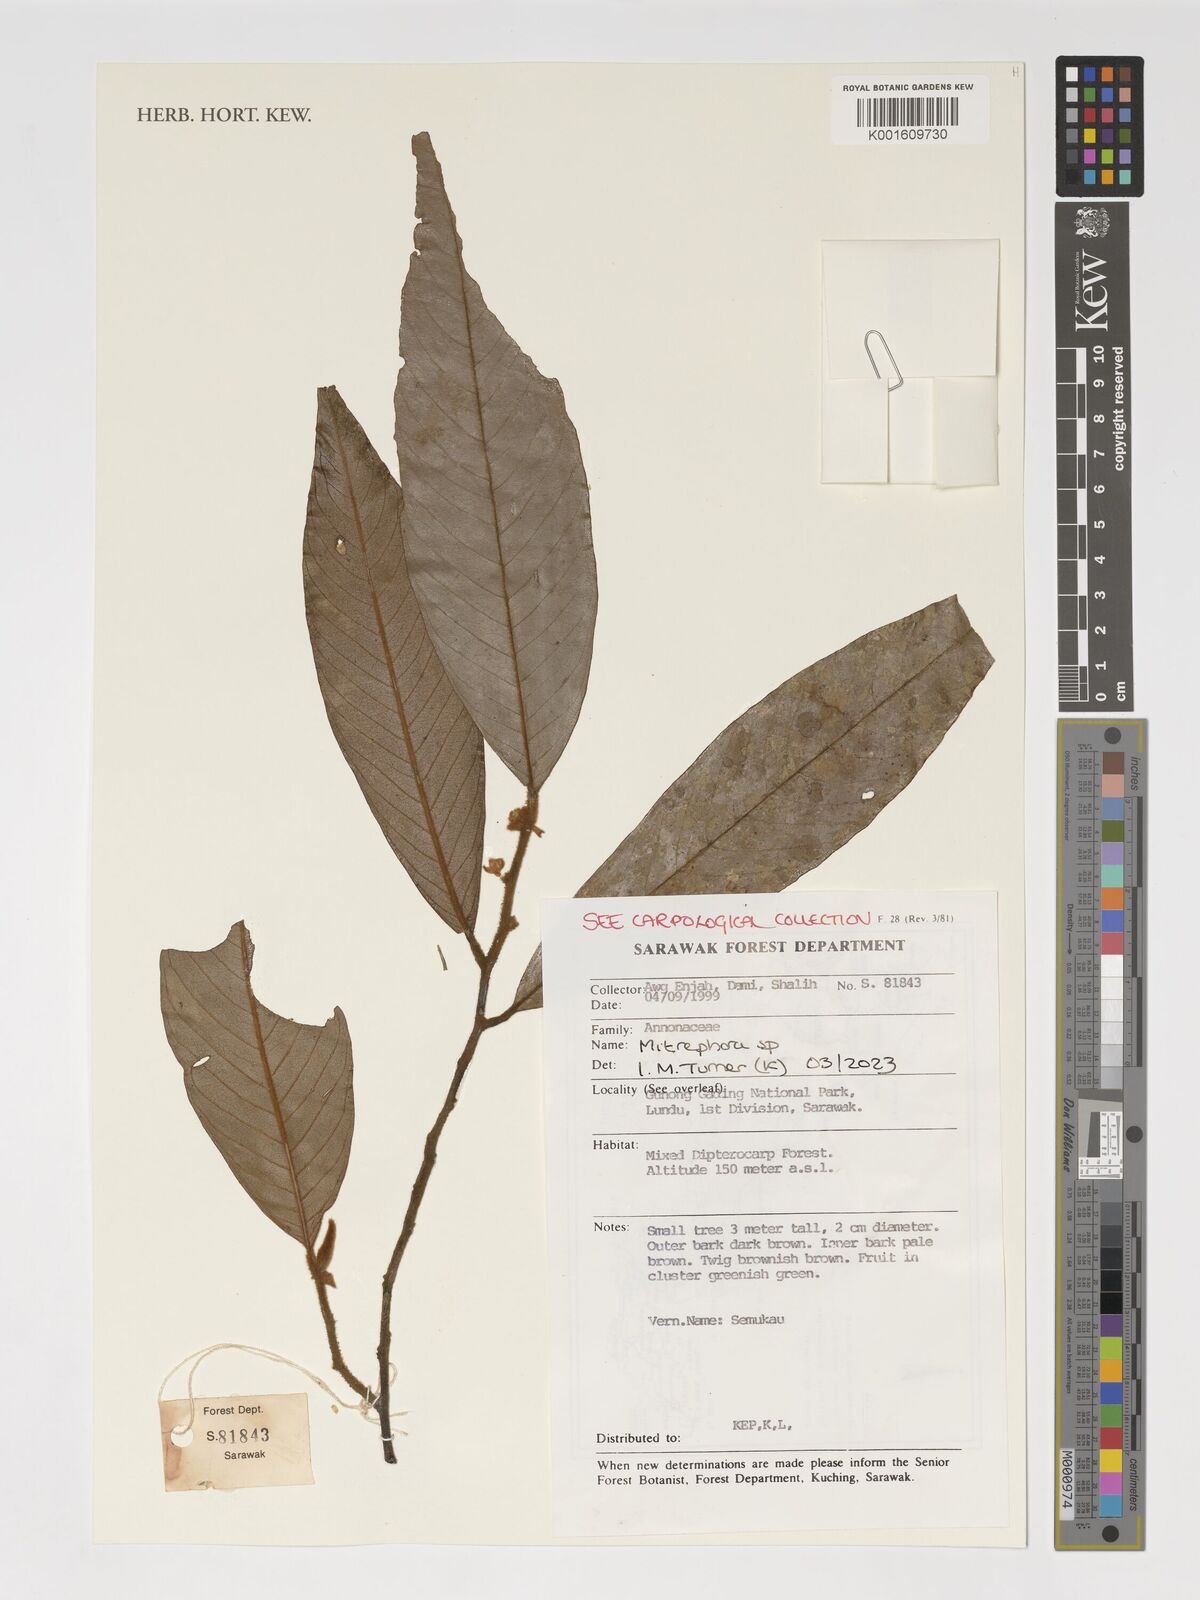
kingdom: Plantae
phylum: Tracheophyta
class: Magnoliopsida
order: Magnoliales
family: Annonaceae
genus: Mitrephora
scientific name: Mitrephora
